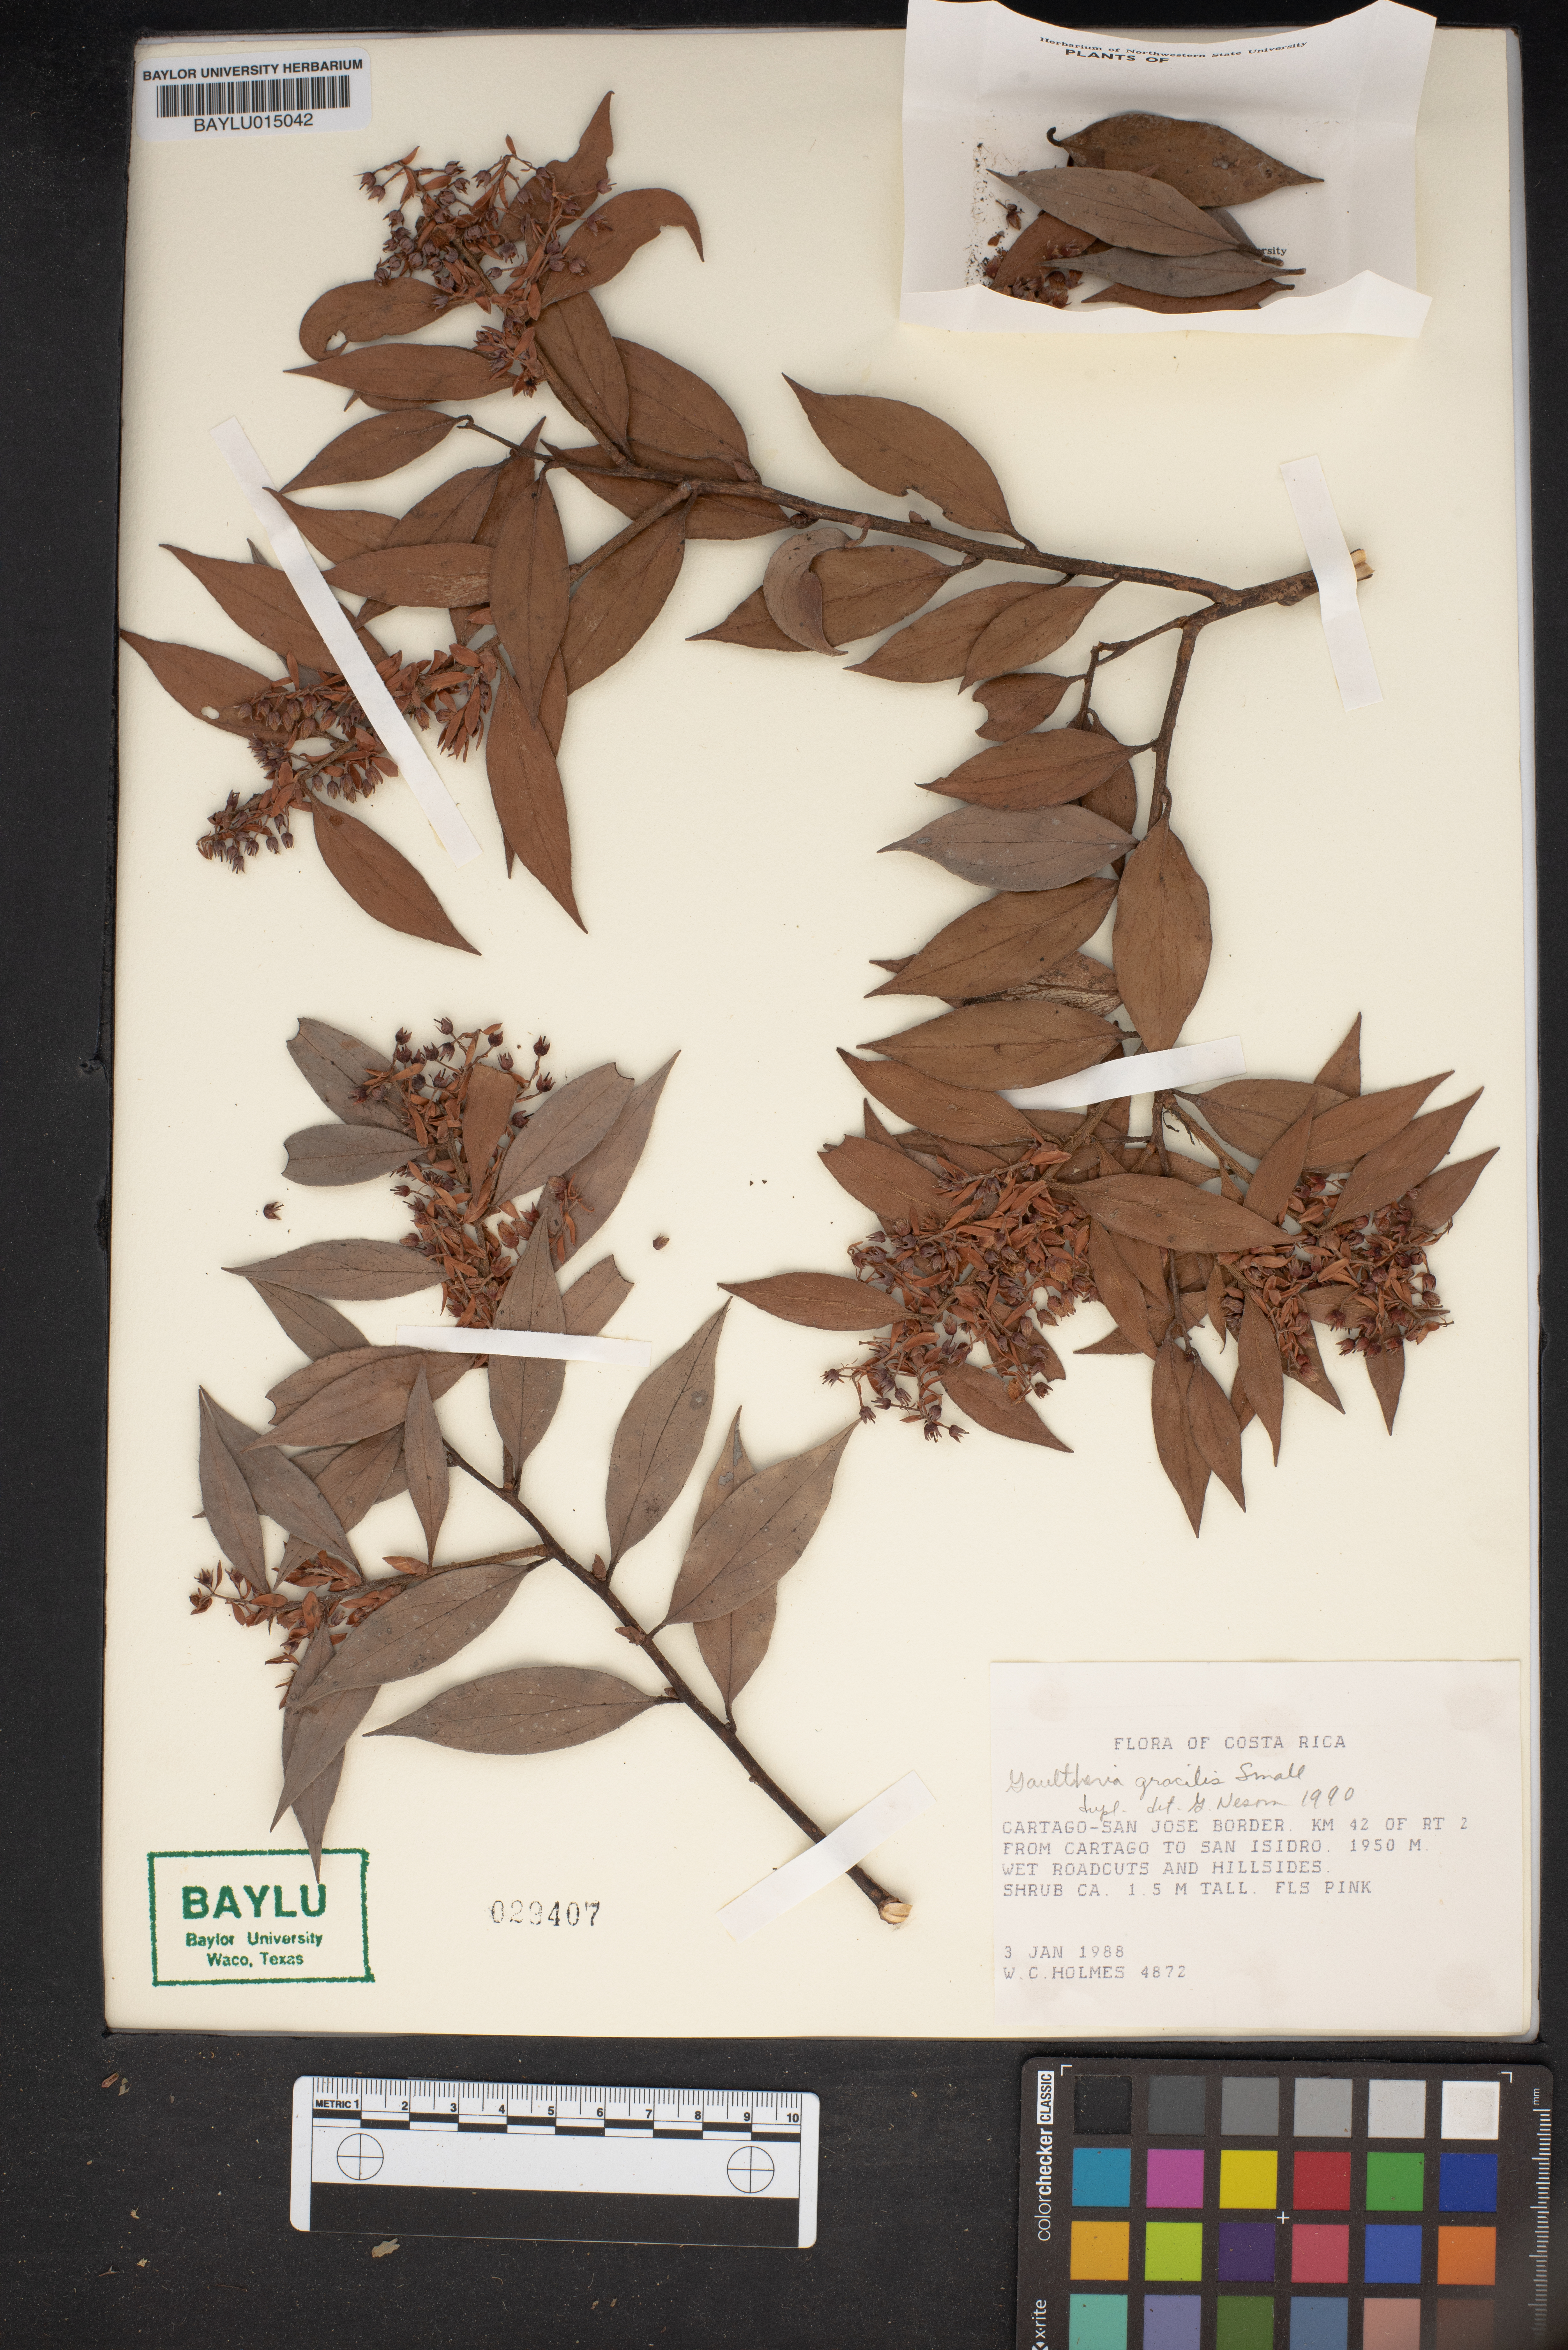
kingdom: Plantae
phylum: Tracheophyta
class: Magnoliopsida
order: Ericales
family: Ericaceae
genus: Gaultheria
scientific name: Gaultheria gracilis
